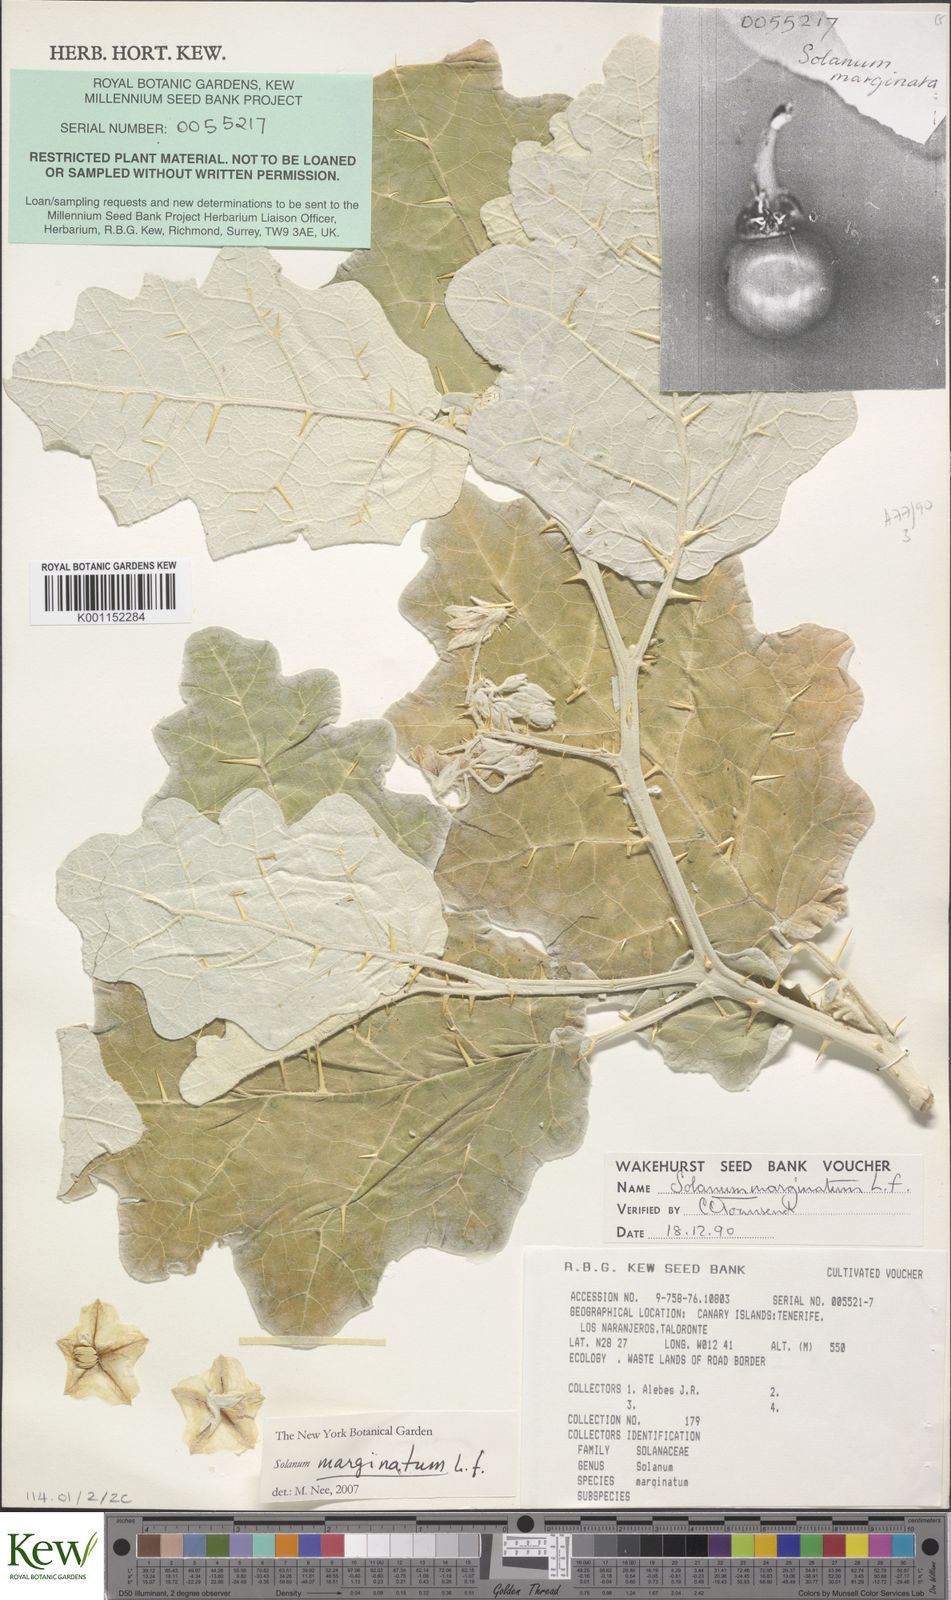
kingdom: Plantae
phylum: Tracheophyta
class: Magnoliopsida
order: Solanales
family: Solanaceae
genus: Solanum
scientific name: Solanum marginatum
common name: Purple african nightshade
